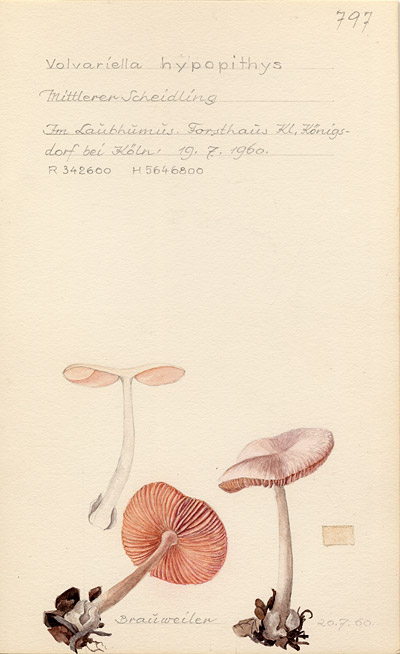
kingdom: Fungi
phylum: Basidiomycota
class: Agaricomycetes
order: Agaricales
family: Pluteaceae
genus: Volvariella
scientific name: Volvariella hypopithys
